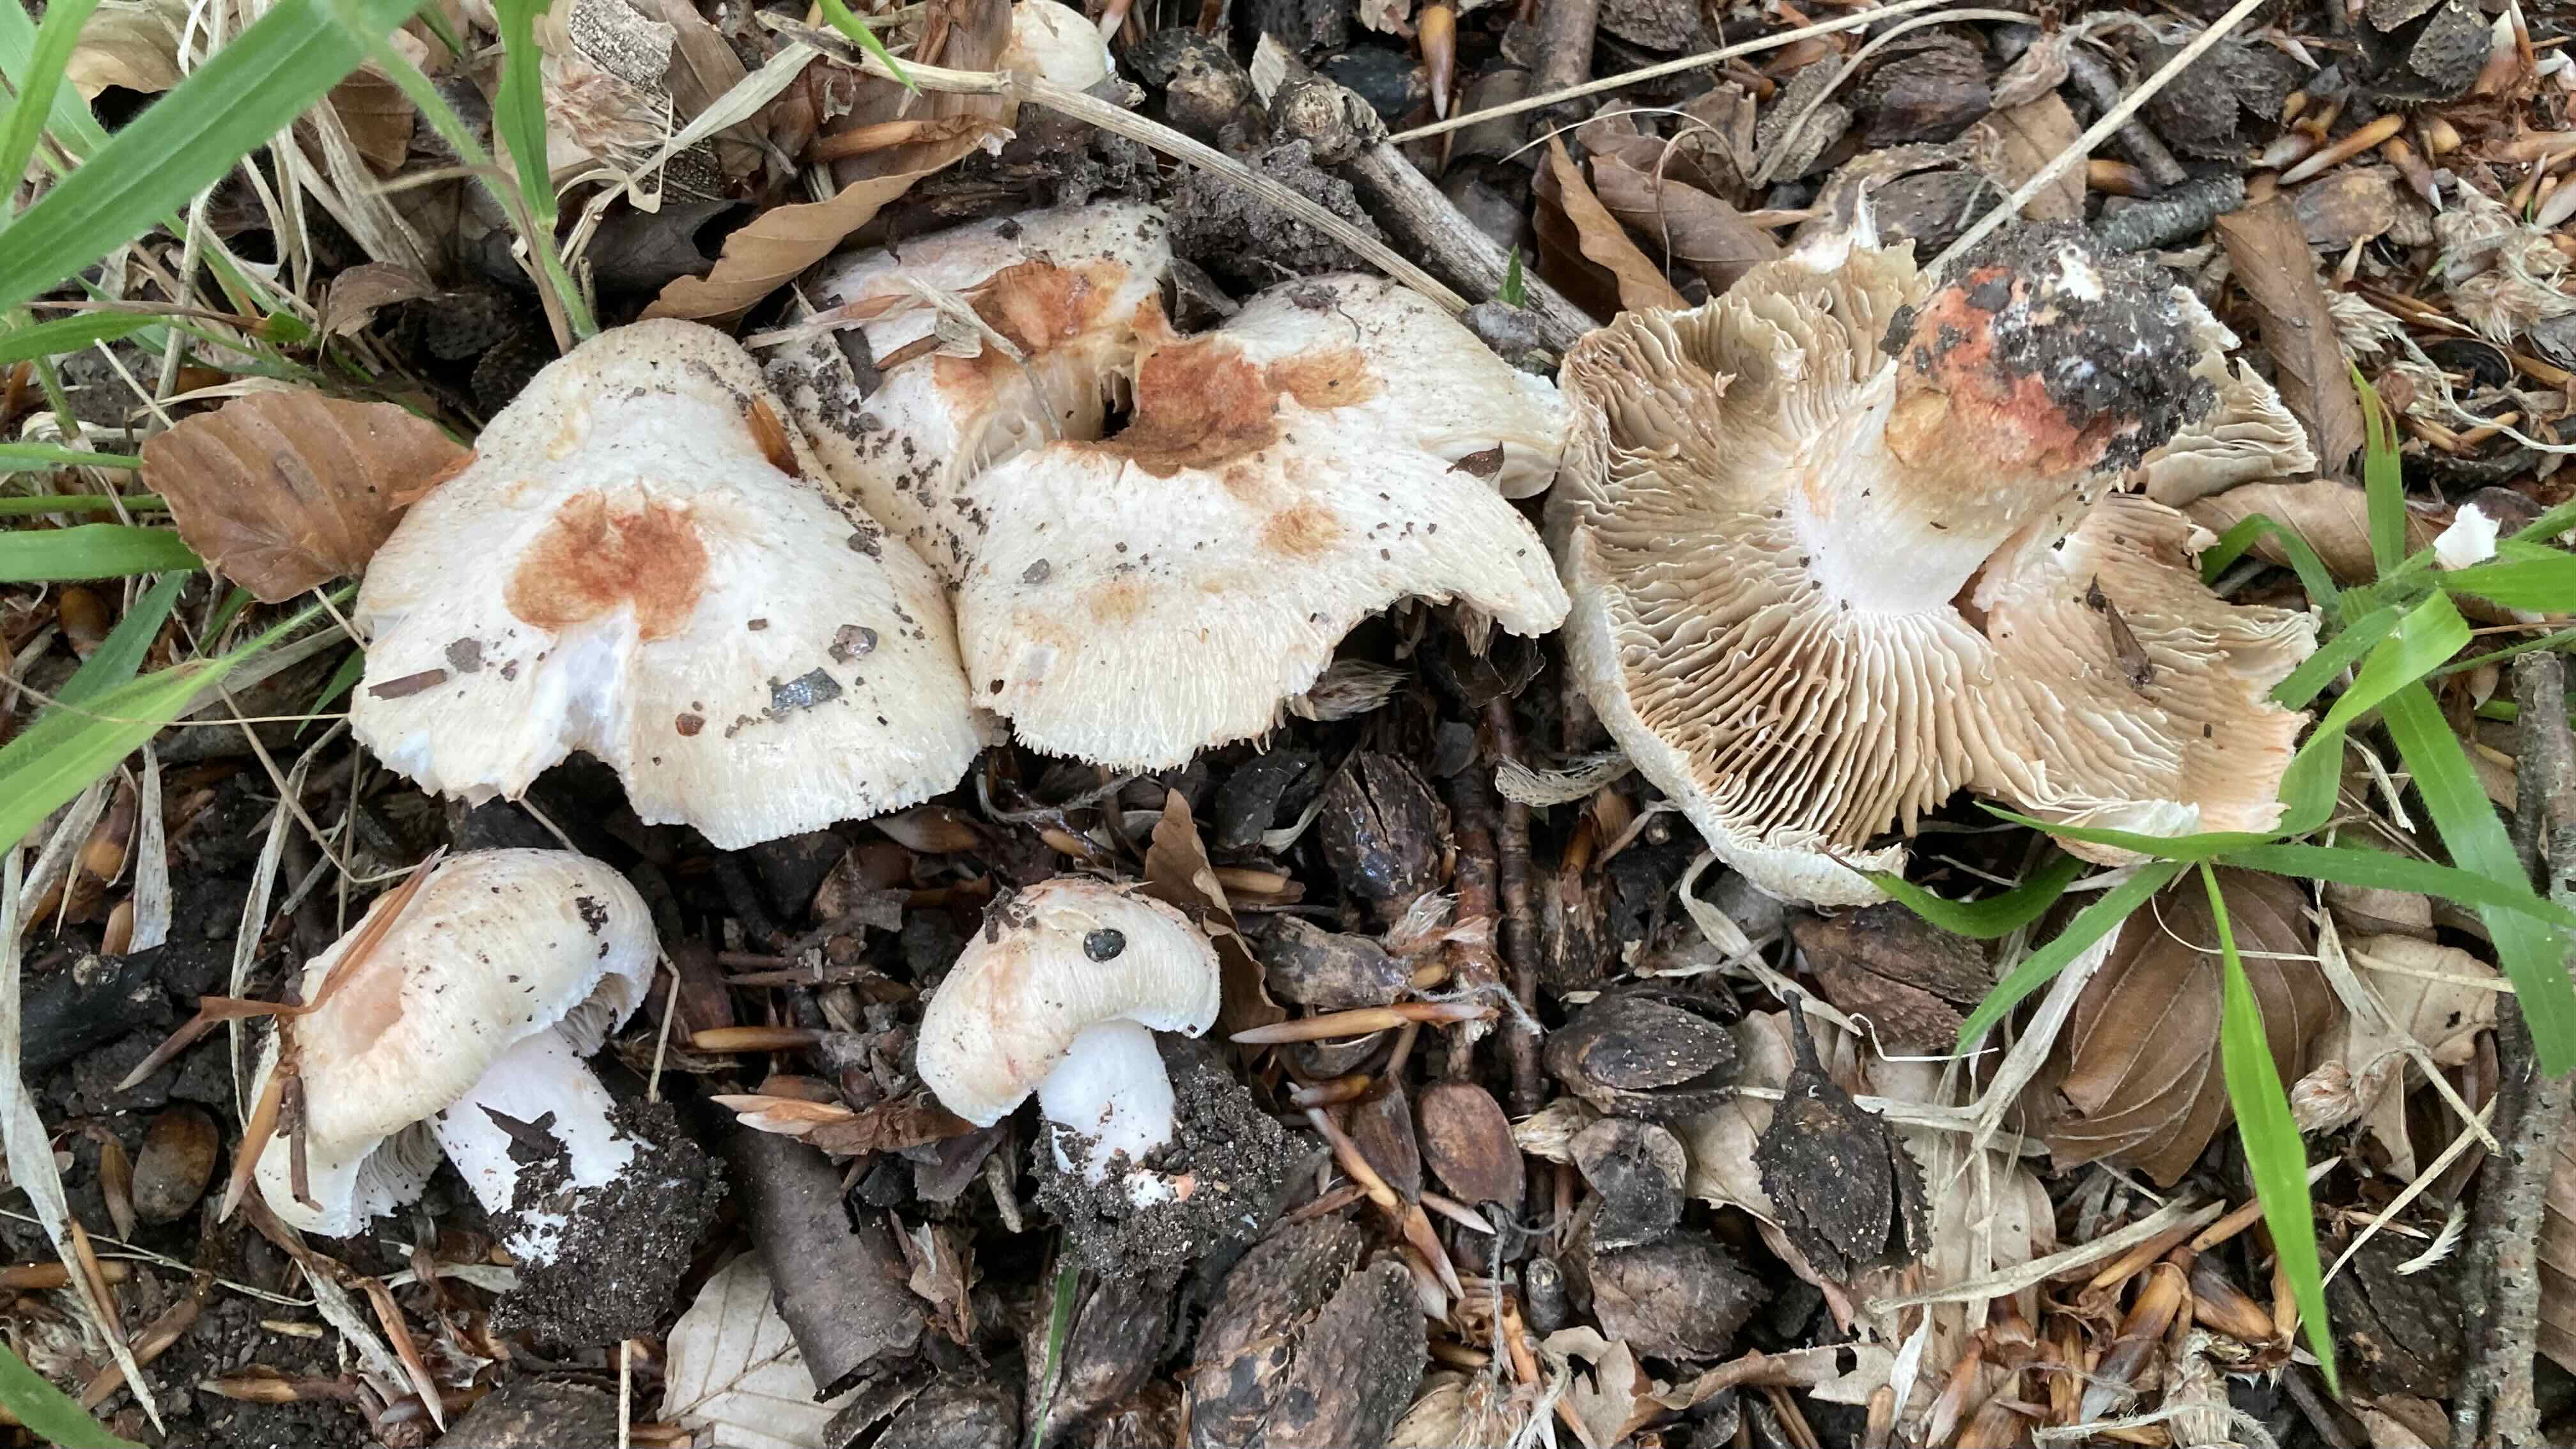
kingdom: Fungi
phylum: Basidiomycota
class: Agaricomycetes
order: Agaricales
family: Inocybaceae
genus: Inosperma
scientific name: Inosperma erubescens
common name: giftig trævlhat
